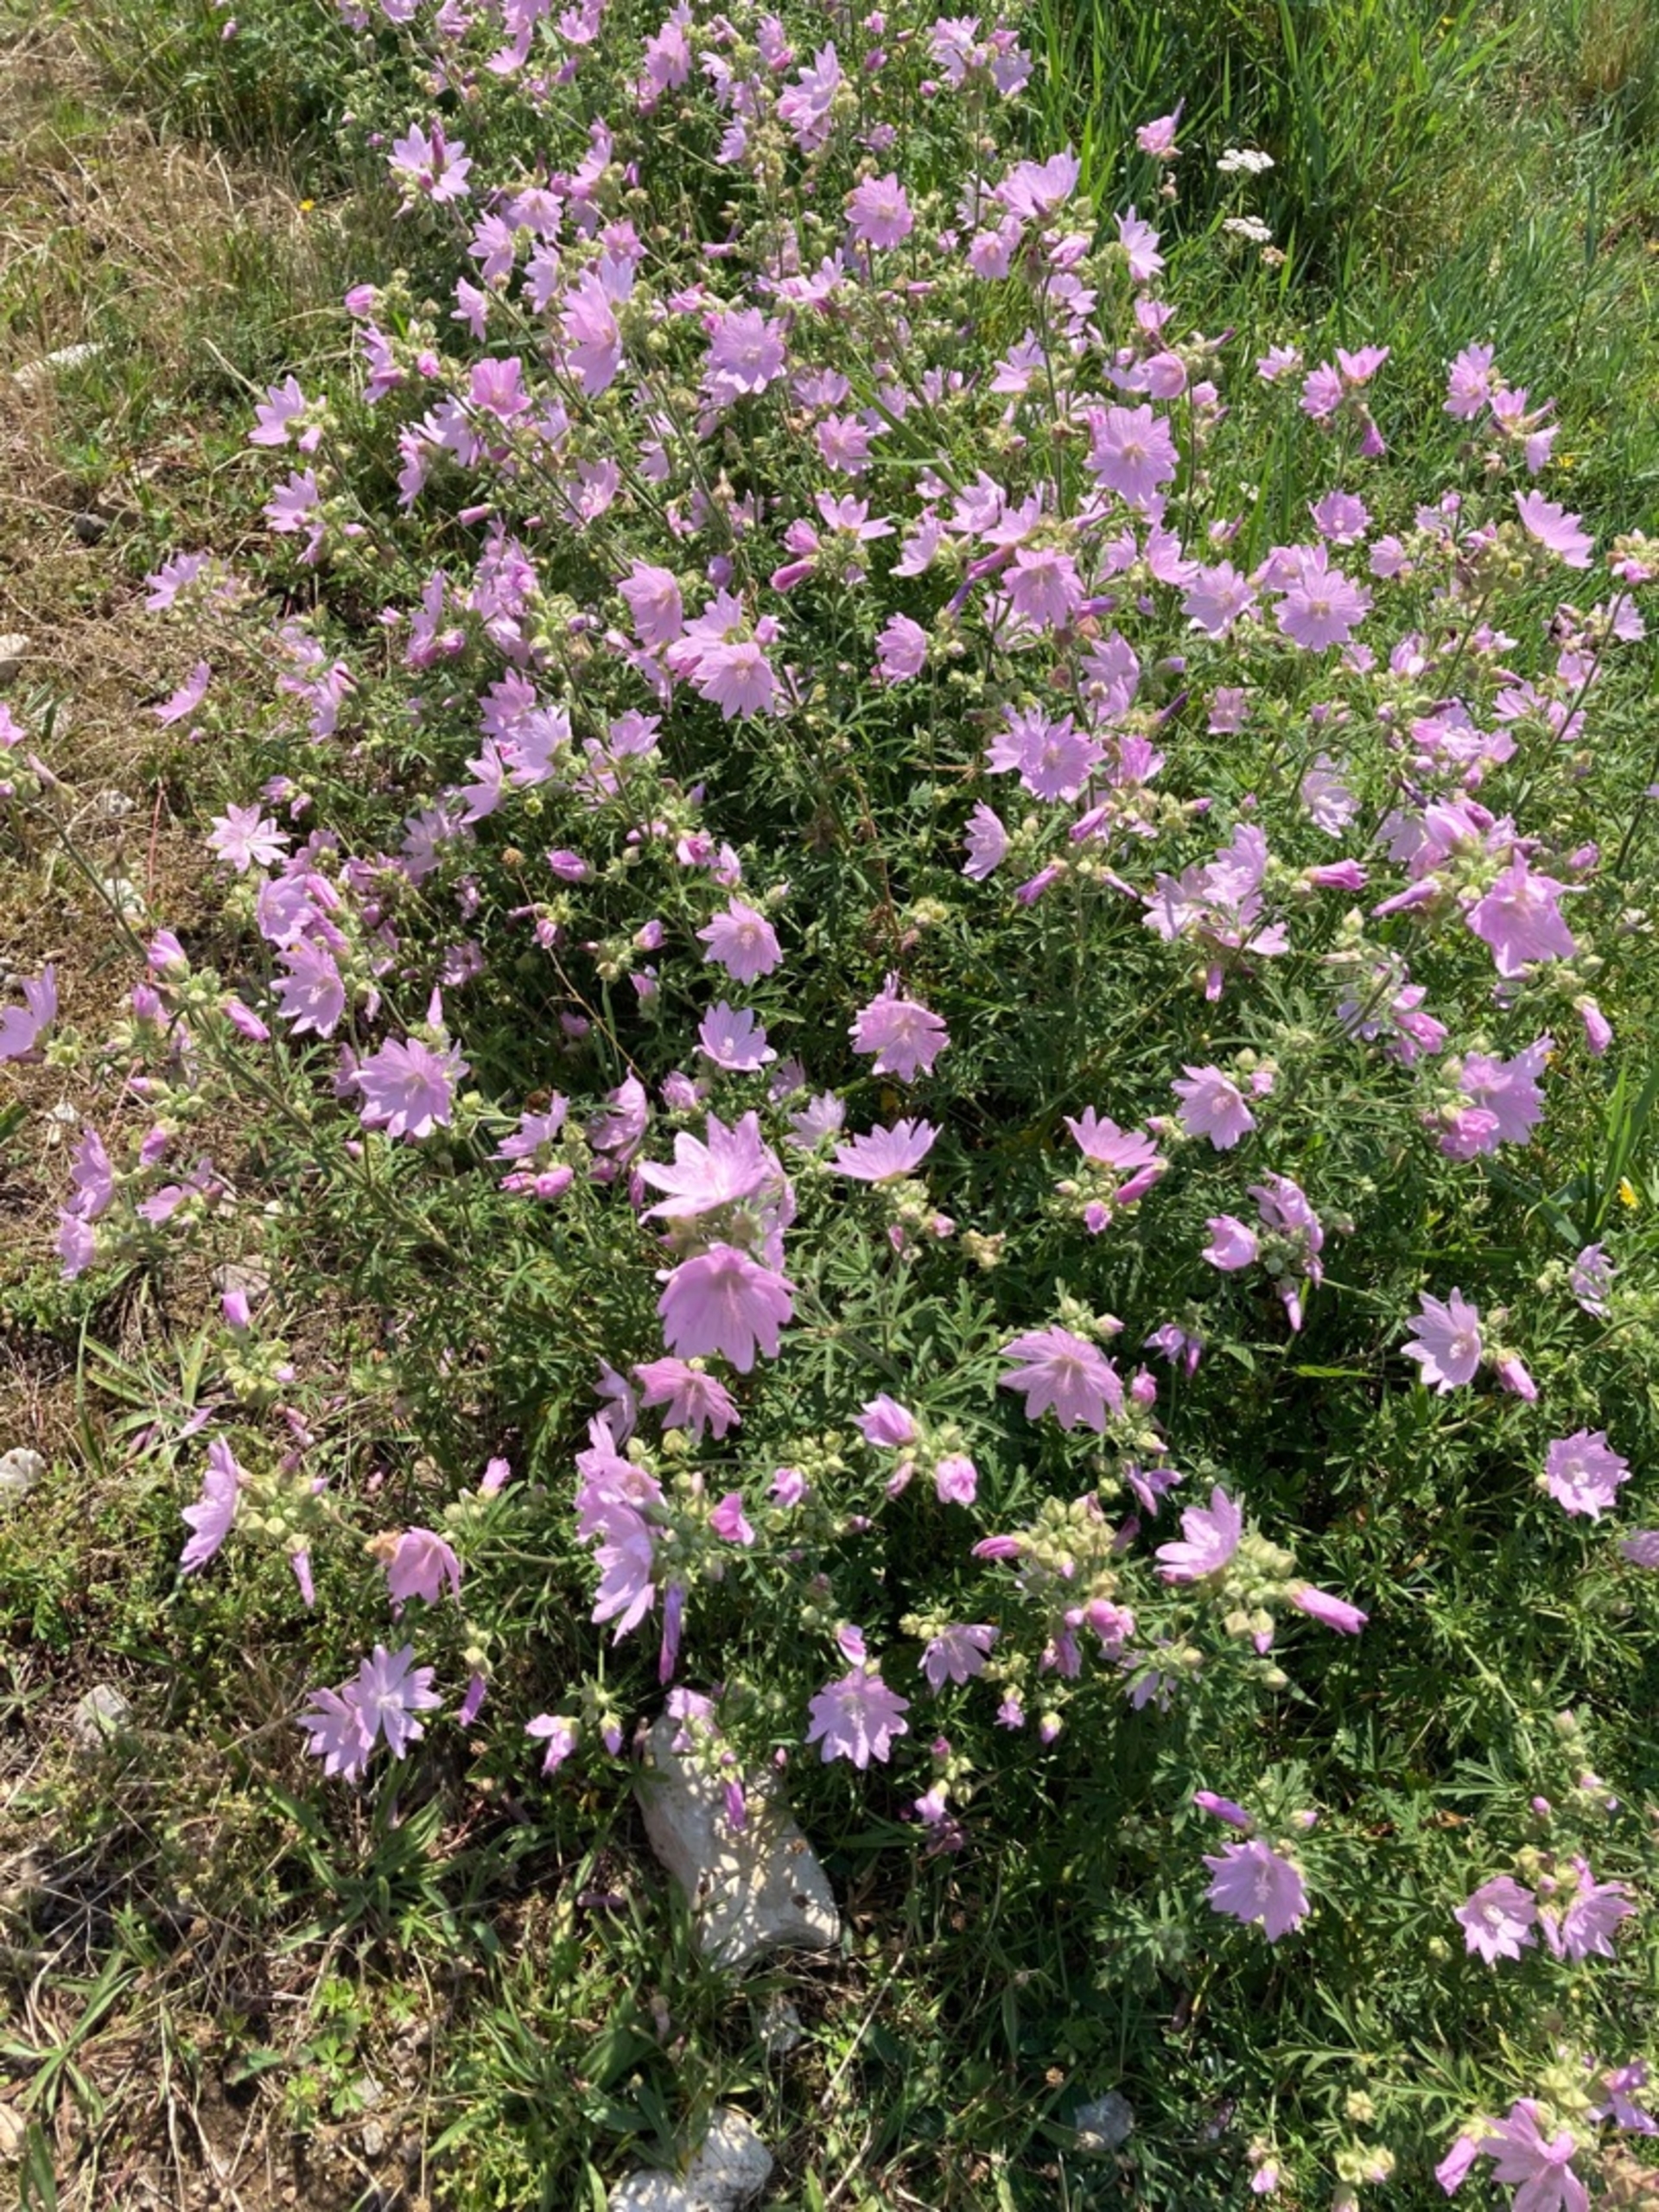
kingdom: Plantae
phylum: Tracheophyta
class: Magnoliopsida
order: Malvales
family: Malvaceae
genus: Malva
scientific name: Malva moschata
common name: Moskus-katost
